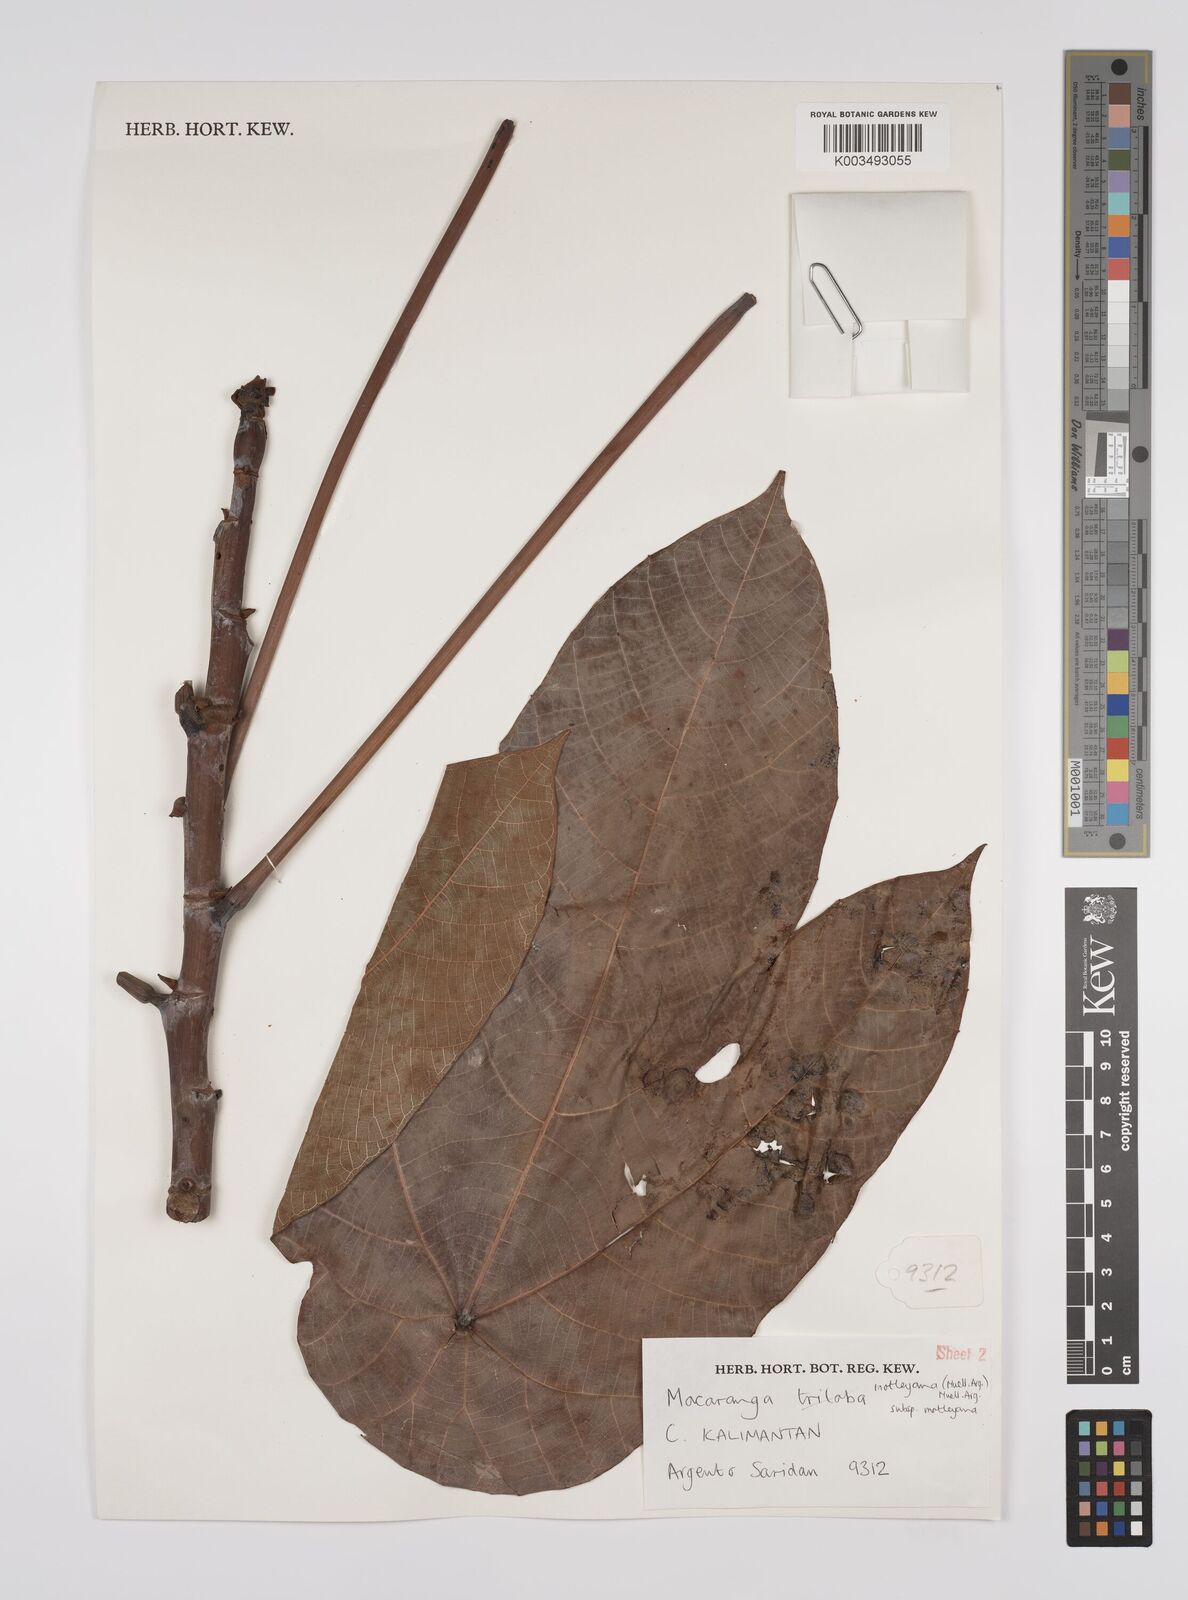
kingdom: Plantae
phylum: Tracheophyta
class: Magnoliopsida
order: Malpighiales
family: Euphorbiaceae
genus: Macaranga
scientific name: Macaranga motleyana
